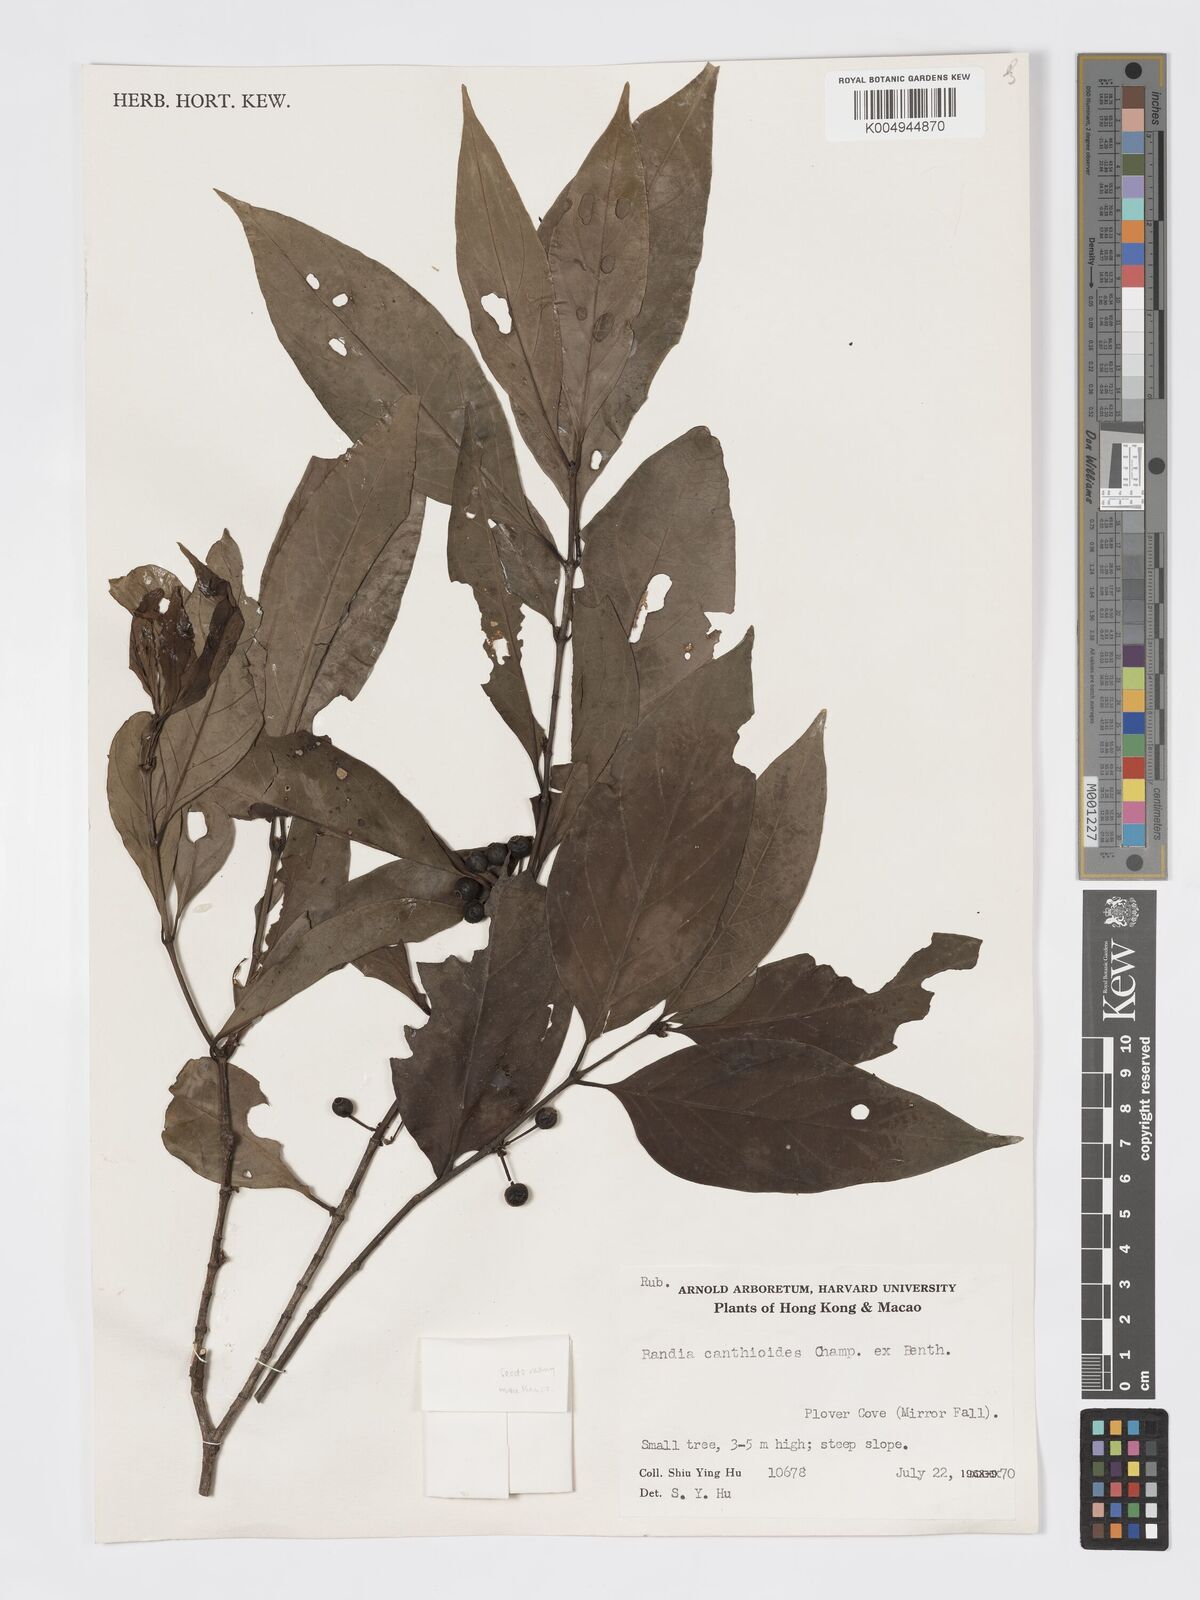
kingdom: Plantae
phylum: Tracheophyta
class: Magnoliopsida
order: Gentianales
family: Rubiaceae
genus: Aidia
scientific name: Aidia canthioides
